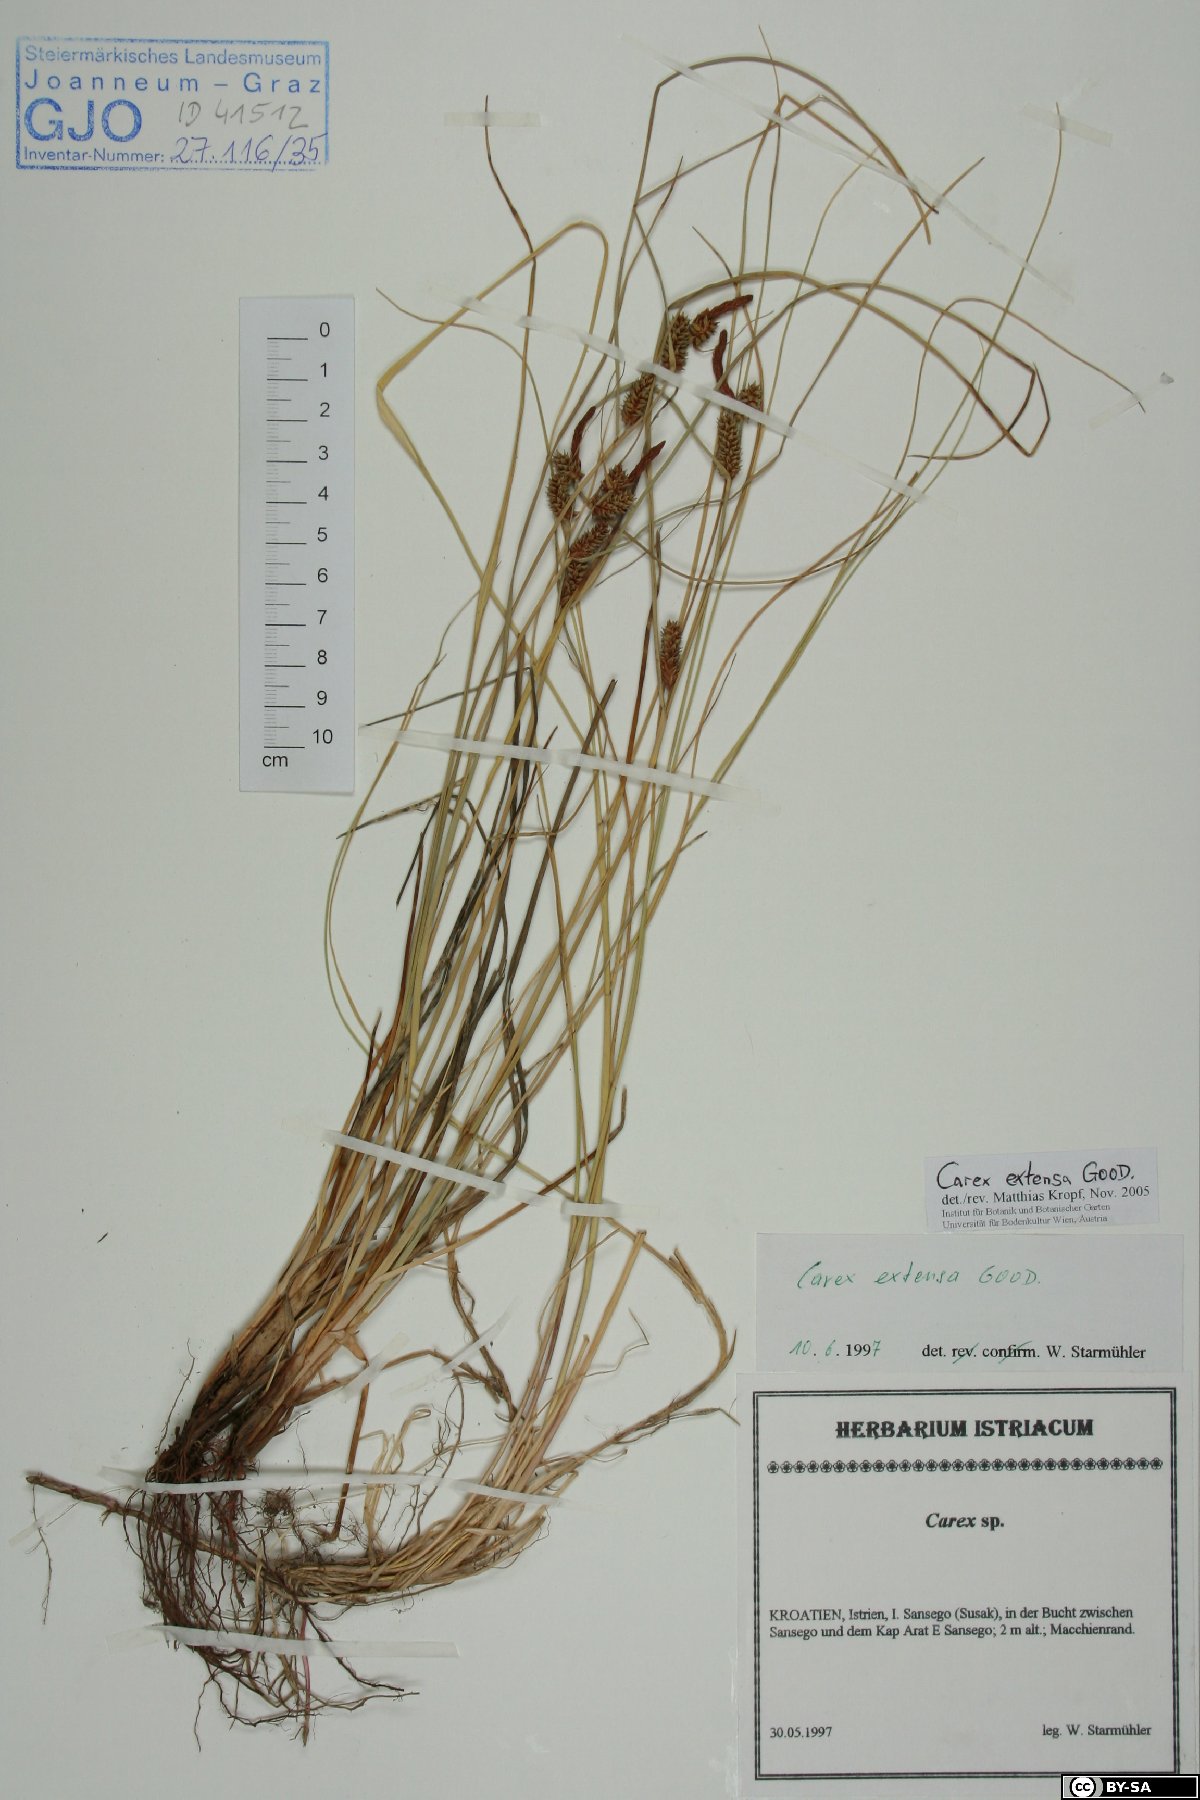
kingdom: Plantae
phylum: Tracheophyta
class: Liliopsida
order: Poales
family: Cyperaceae
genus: Carex
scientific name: Carex extensa
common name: Long-bracted sedge
